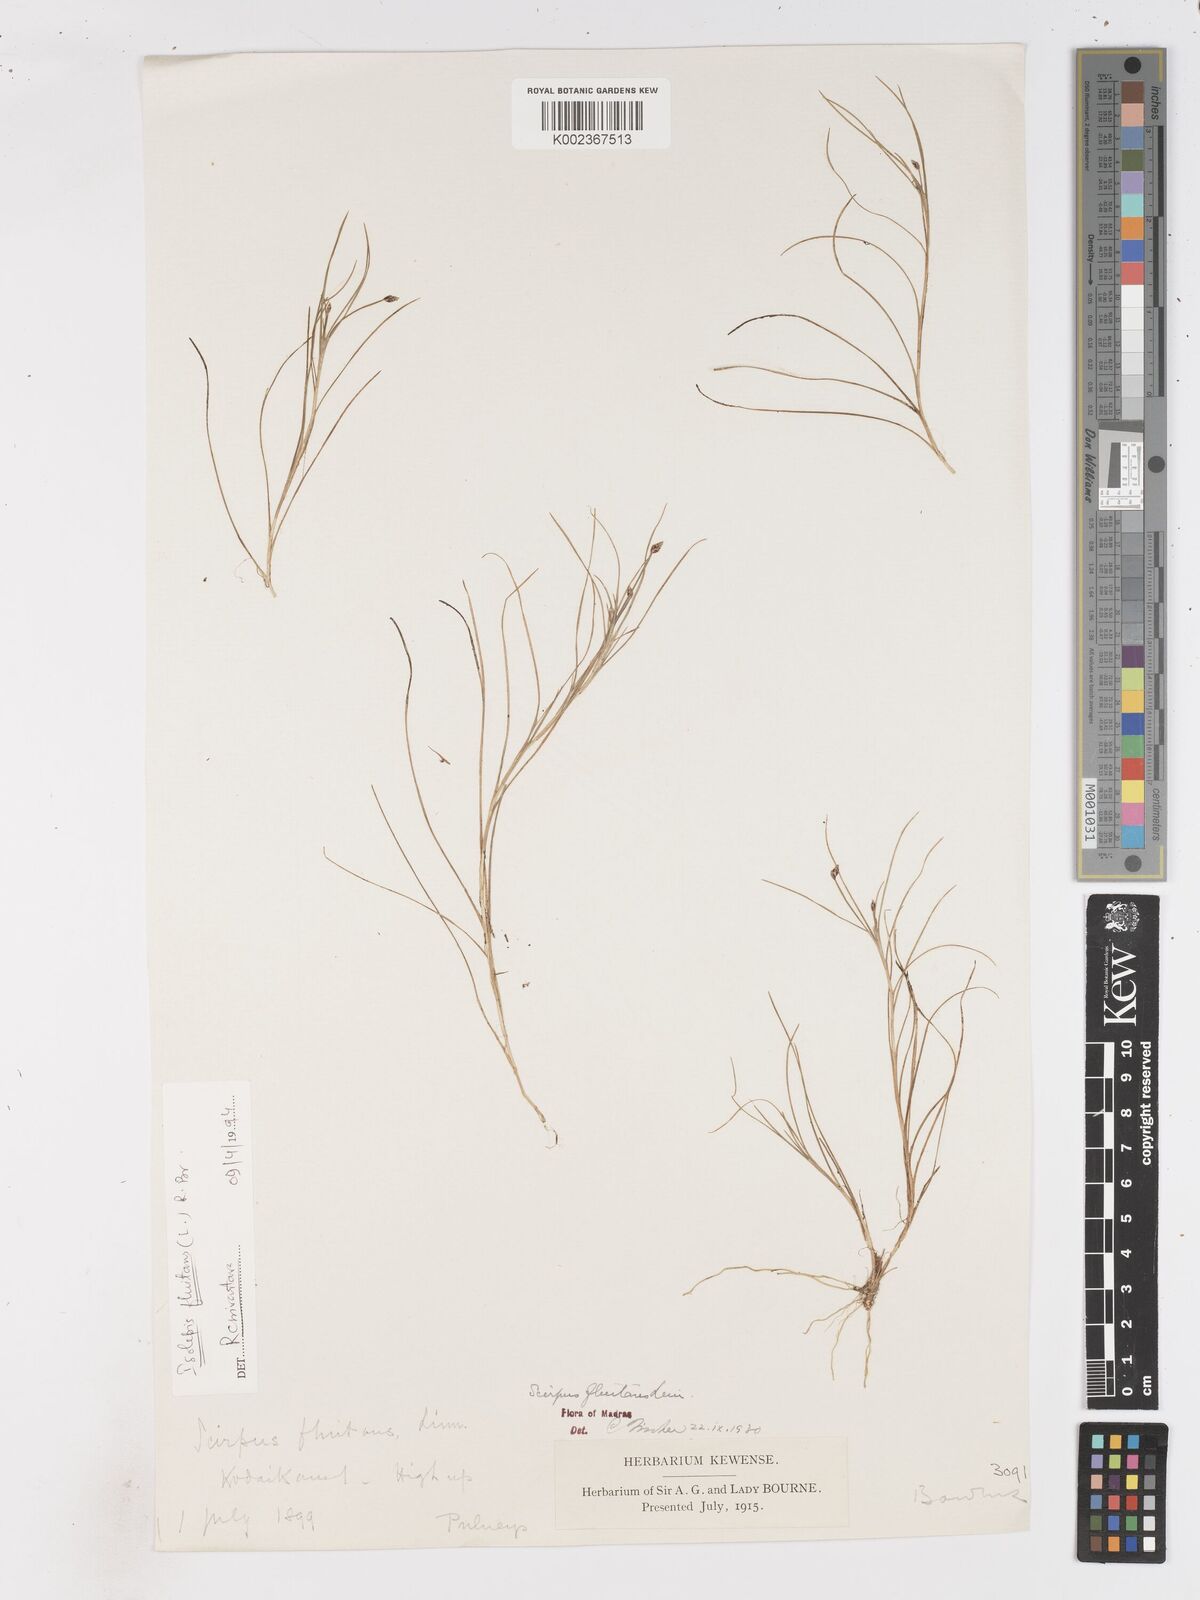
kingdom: Plantae
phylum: Tracheophyta
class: Liliopsida
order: Poales
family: Cyperaceae
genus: Isolepis
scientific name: Isolepis fluitans
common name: Floating club-rush
